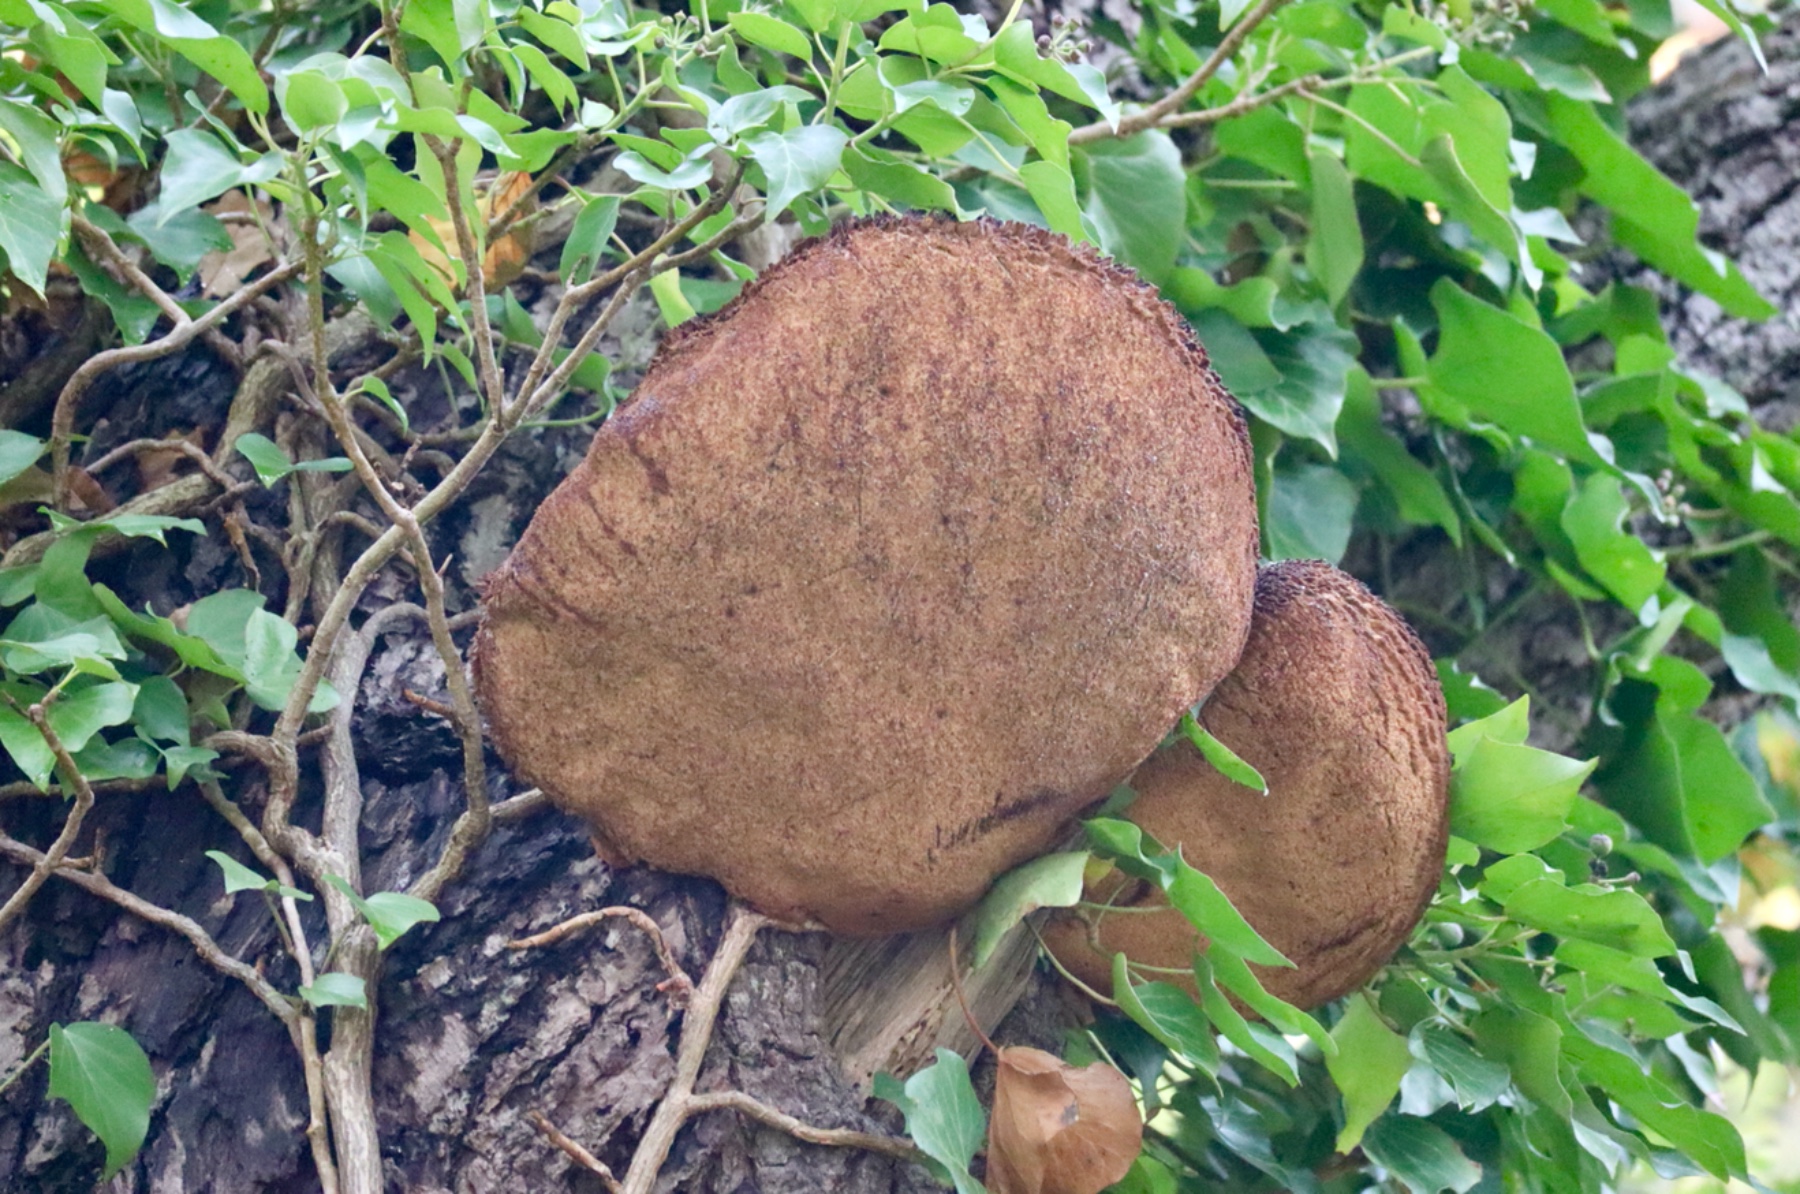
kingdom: Fungi
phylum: Basidiomycota
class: Agaricomycetes
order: Agaricales
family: Fistulinaceae
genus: Fistulina
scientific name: Fistulina hepatica
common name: oksetunge
